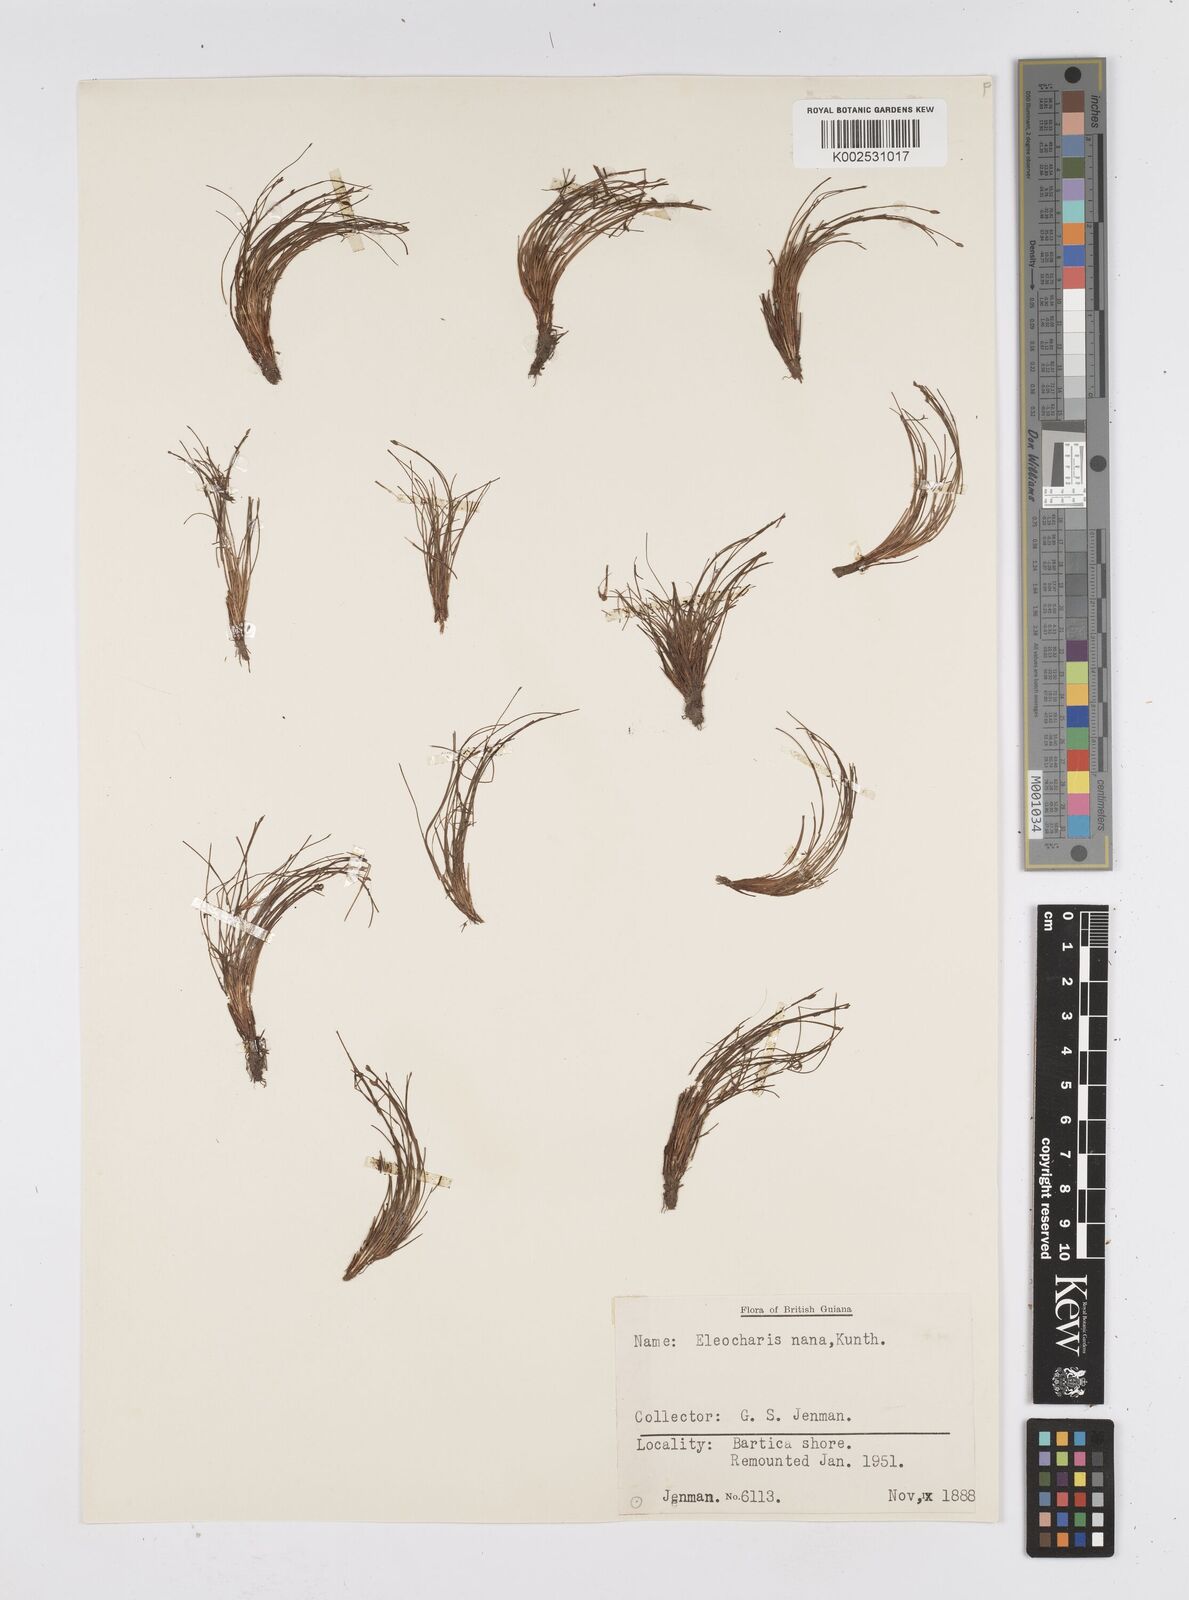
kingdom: Plantae
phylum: Tracheophyta
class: Liliopsida
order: Poales
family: Cyperaceae
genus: Eleocharis
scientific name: Eleocharis nana
